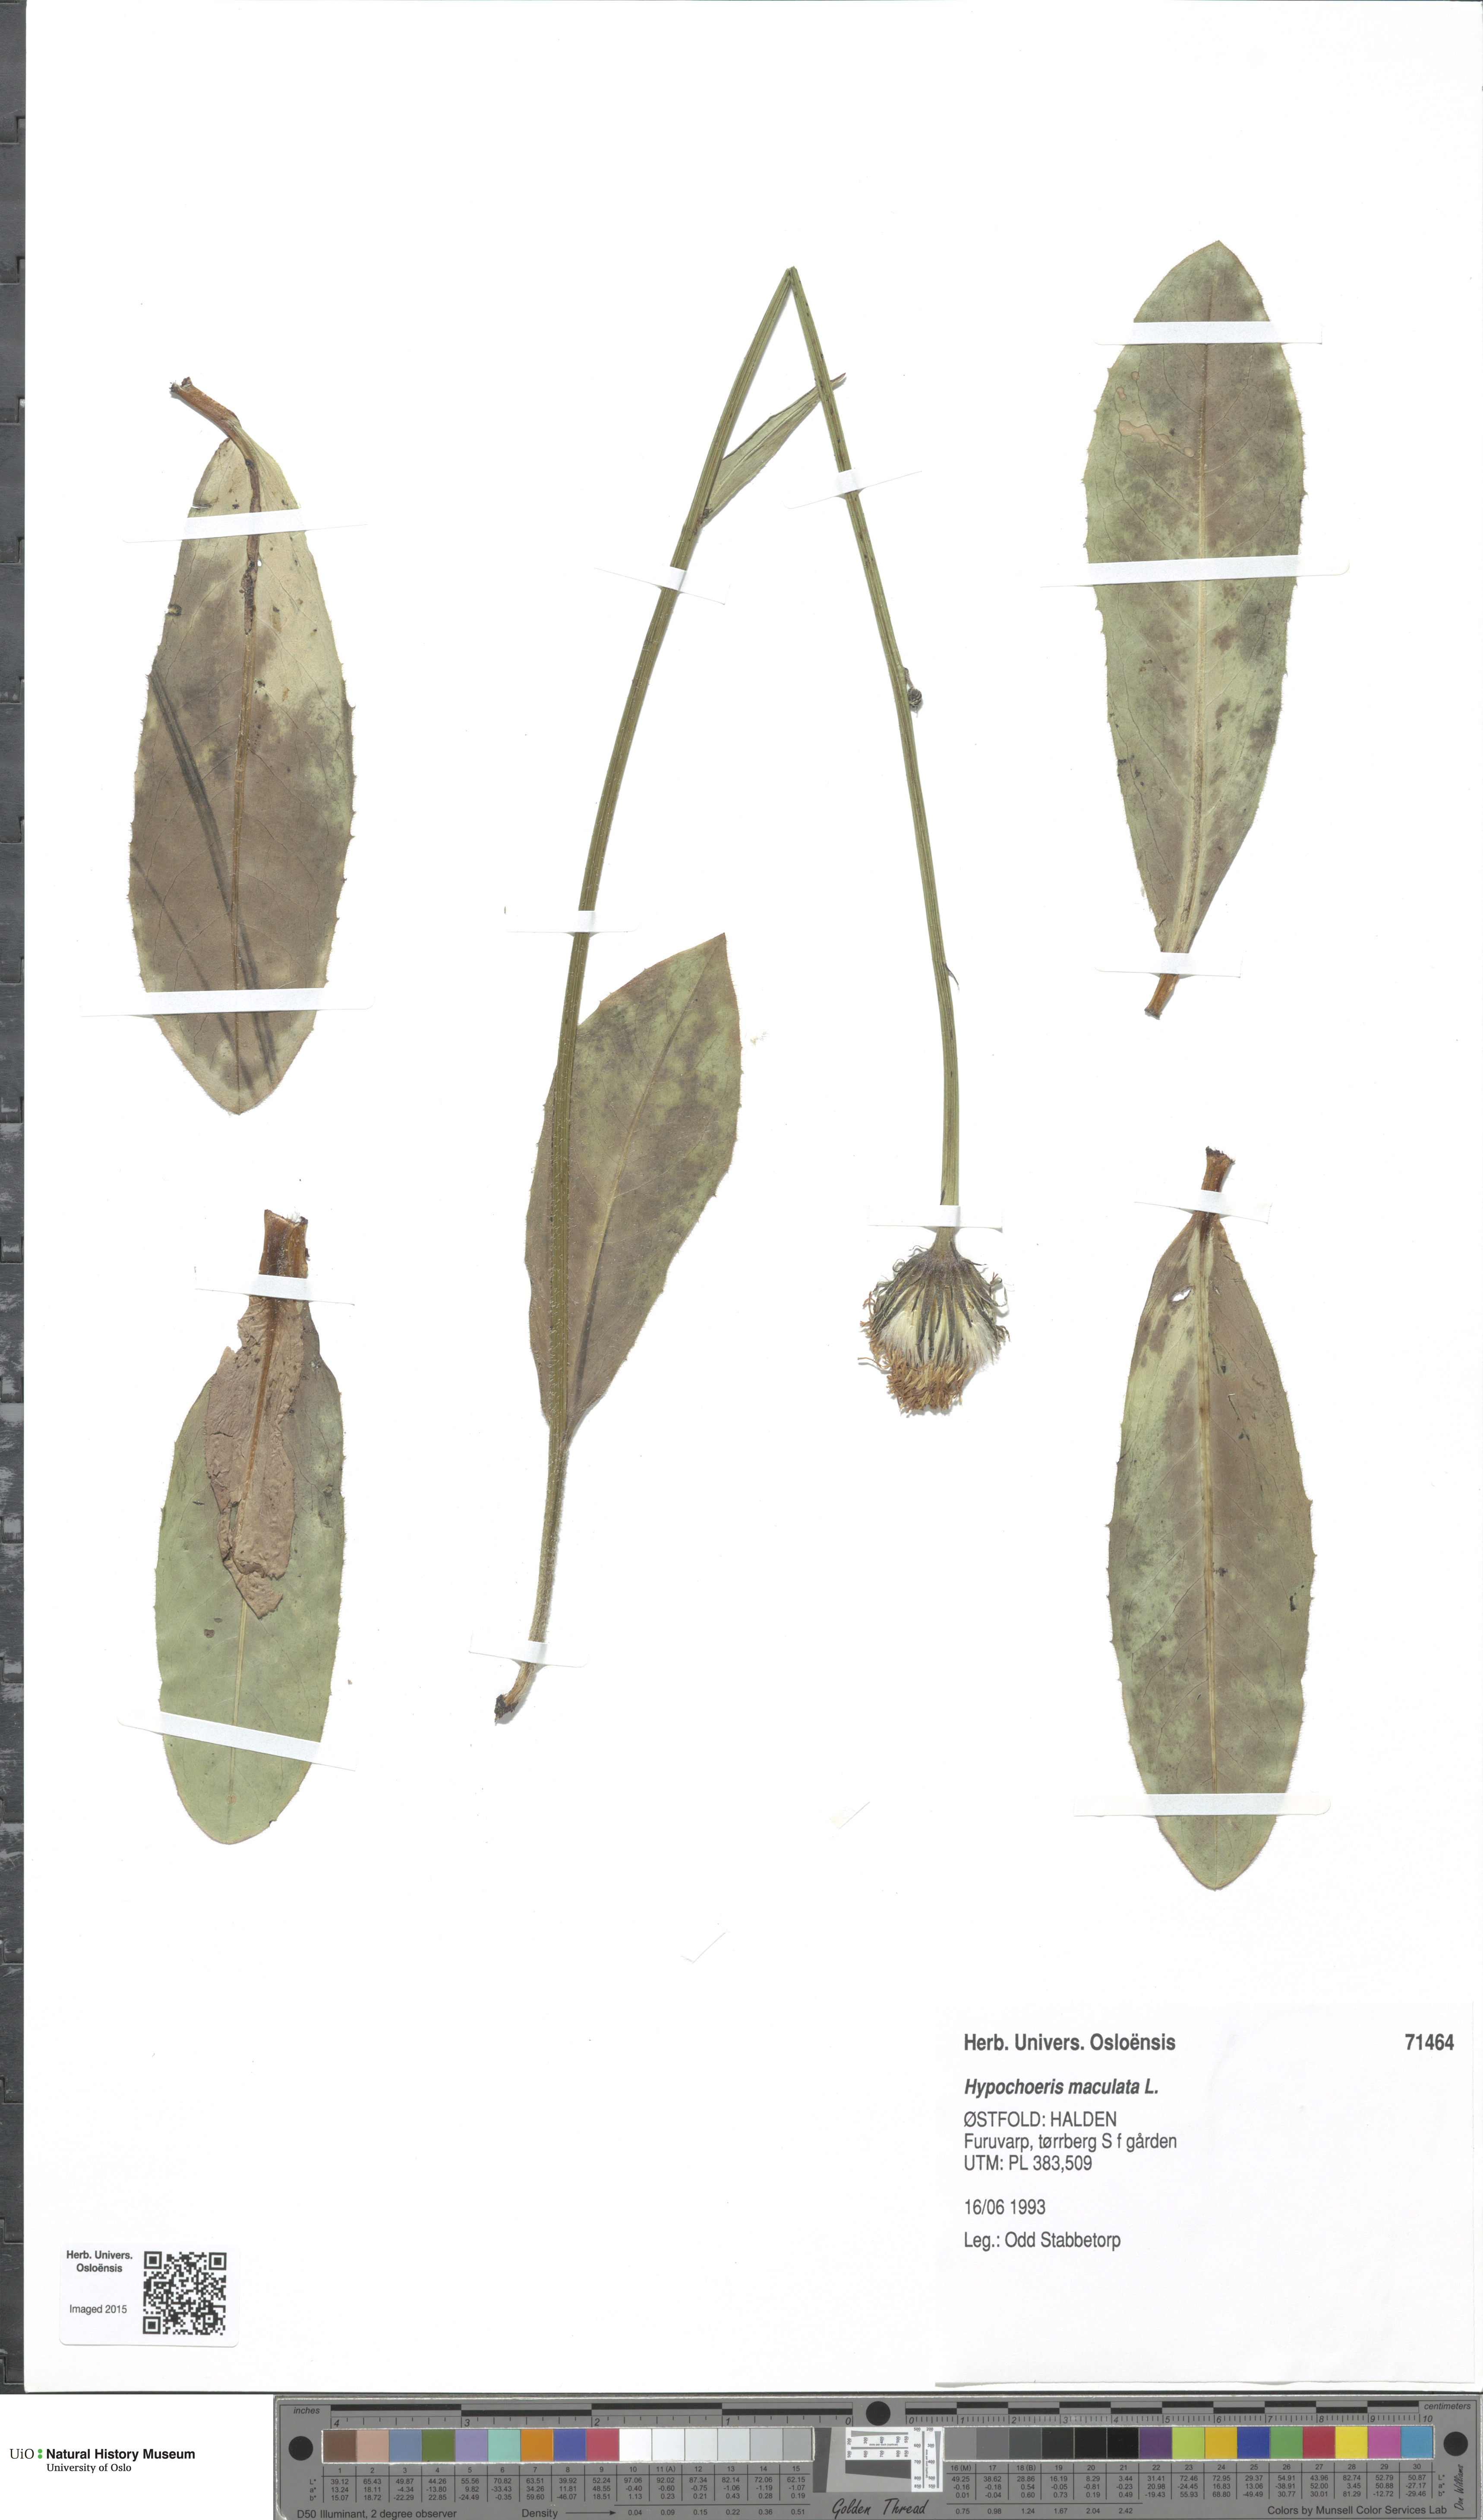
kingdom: Plantae
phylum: Tracheophyta
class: Magnoliopsida
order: Asterales
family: Asteraceae
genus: Trommsdorffia
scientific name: Trommsdorffia maculata
